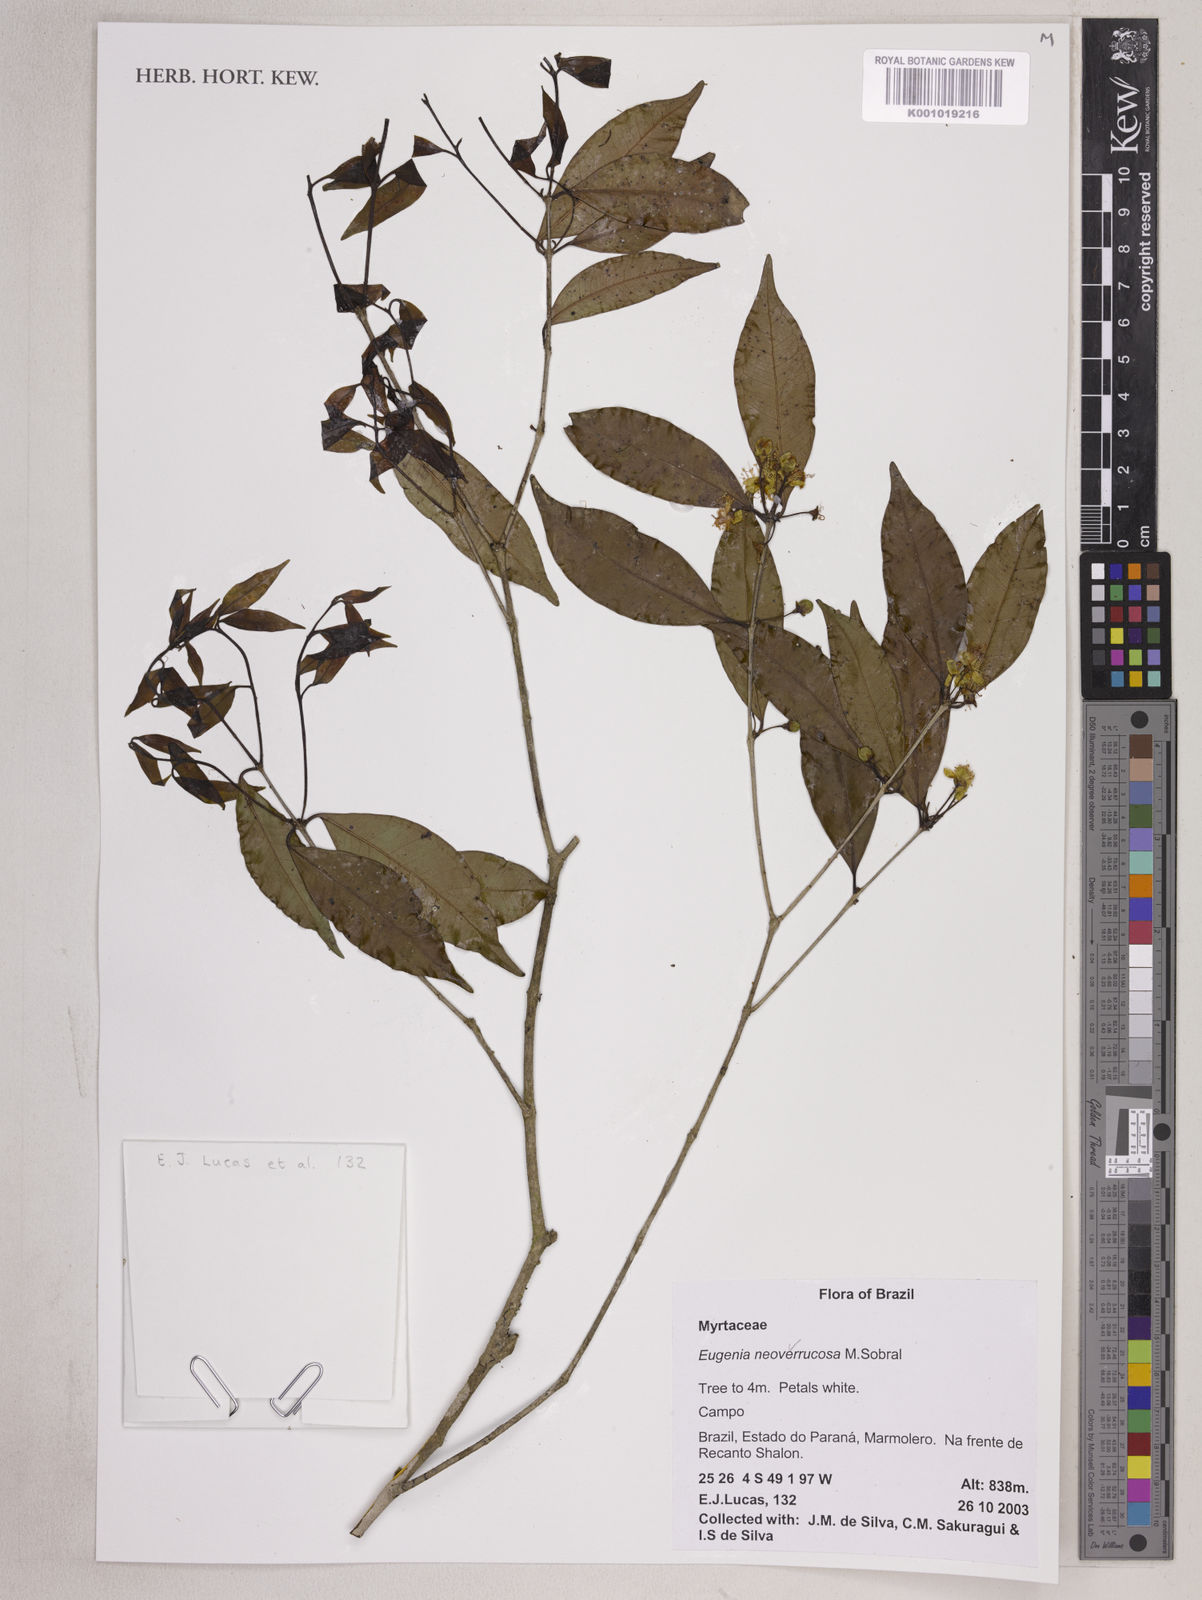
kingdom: Plantae
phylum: Tracheophyta
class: Magnoliopsida
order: Myrtales
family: Myrtaceae
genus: Eugenia
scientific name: Eugenia neoverrucosa
